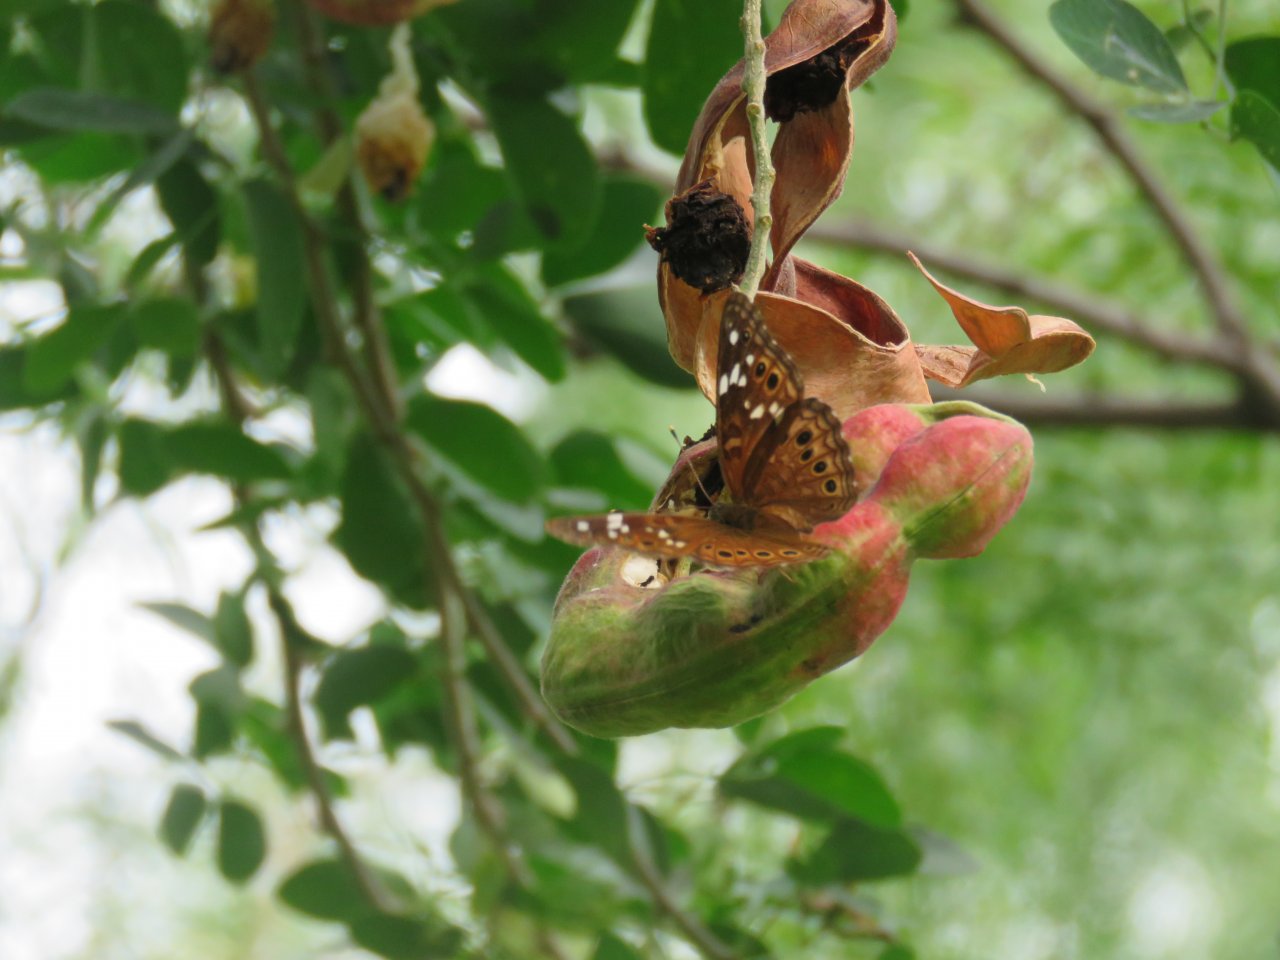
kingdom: Animalia
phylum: Arthropoda
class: Insecta
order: Lepidoptera
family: Nymphalidae
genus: Asterocampa
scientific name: Asterocampa leilia
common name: Empress Leilia
